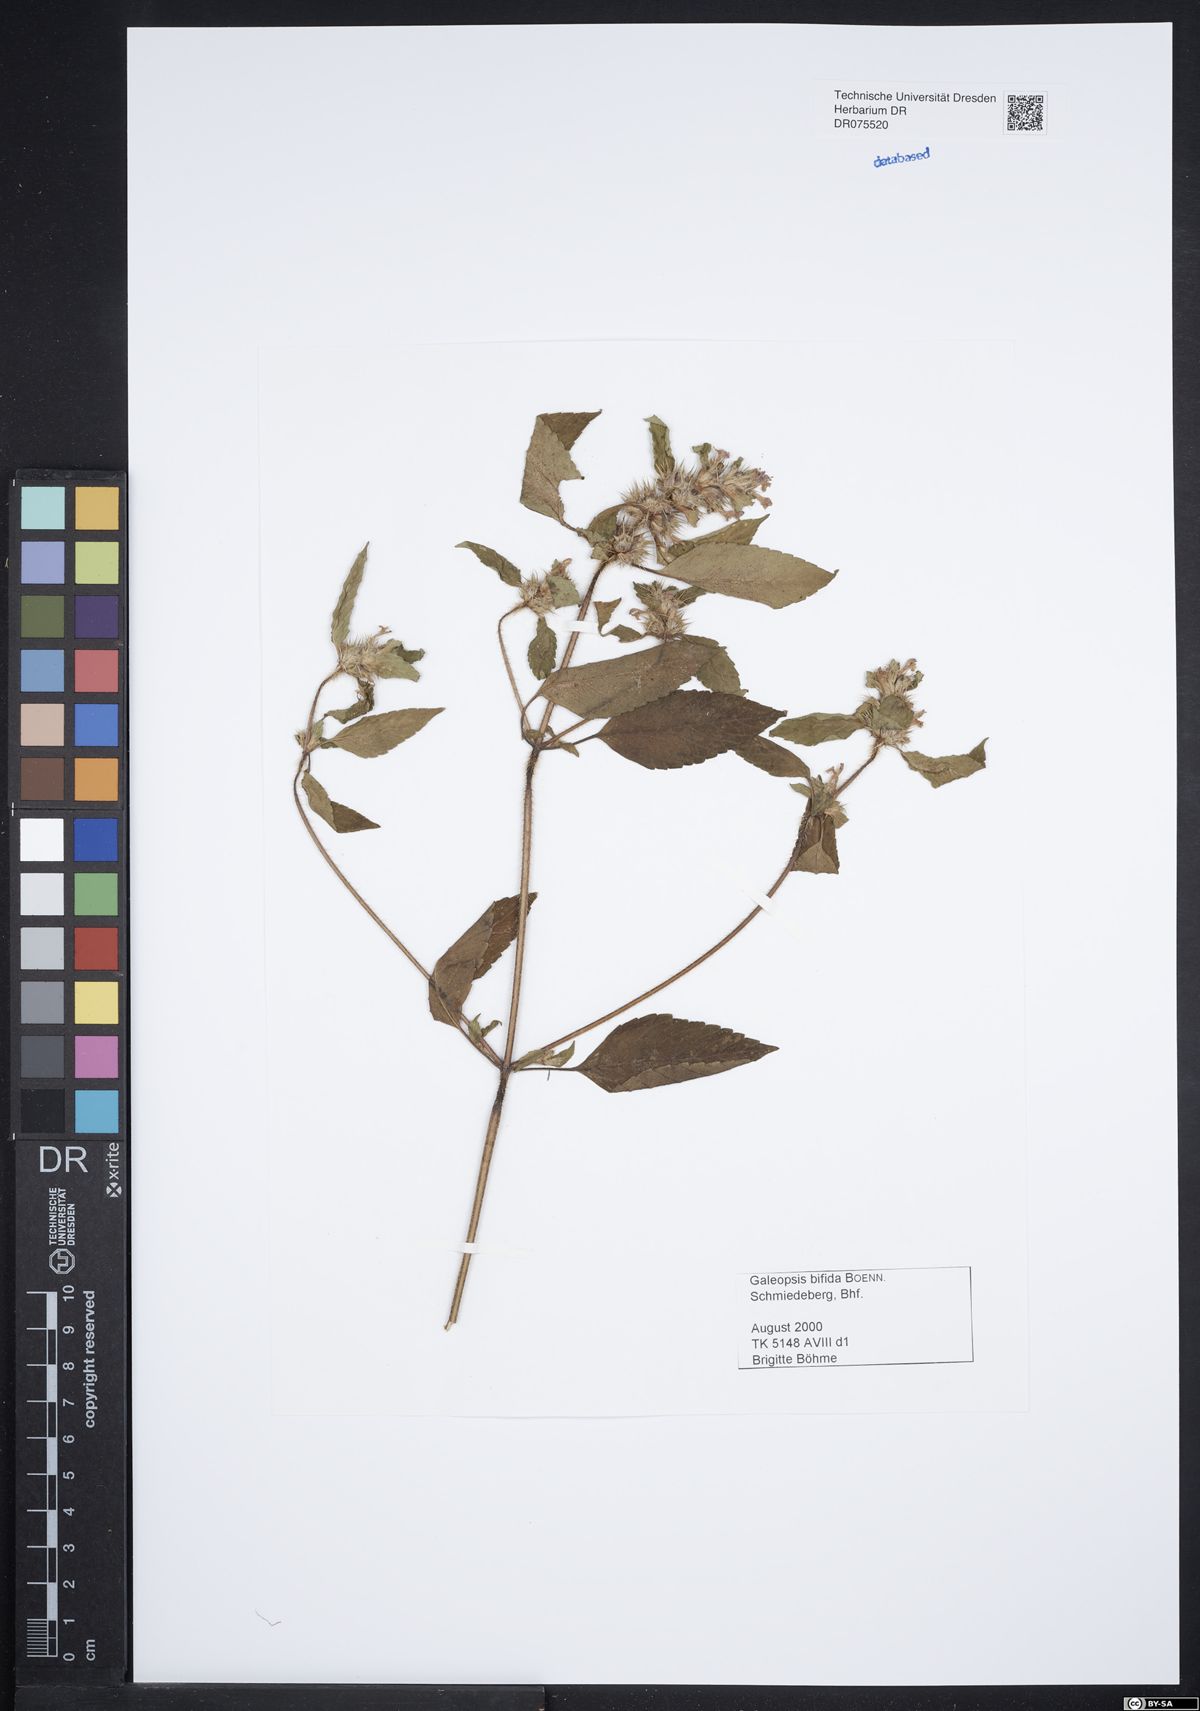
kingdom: Plantae
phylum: Tracheophyta
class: Magnoliopsida
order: Lamiales
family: Lamiaceae
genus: Galeopsis
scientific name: Galeopsis bifida
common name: Bifid hemp-nettle
